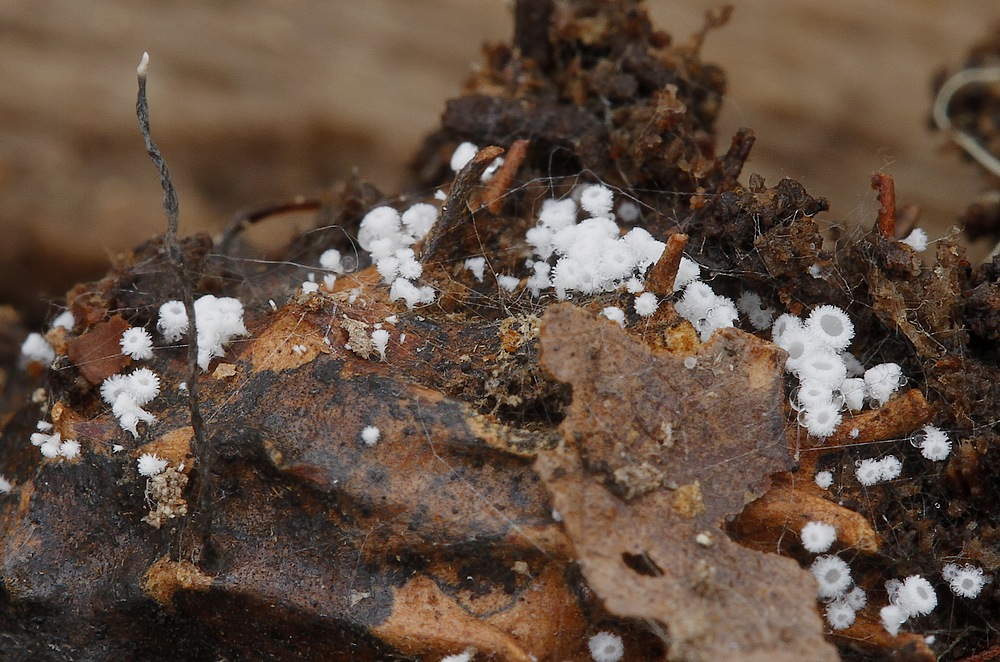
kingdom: Fungi
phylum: Ascomycota
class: Leotiomycetes
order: Helotiales
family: Lachnaceae
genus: Lachnum
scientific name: Lachnum virgineum
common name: jomfru-frynseskive
